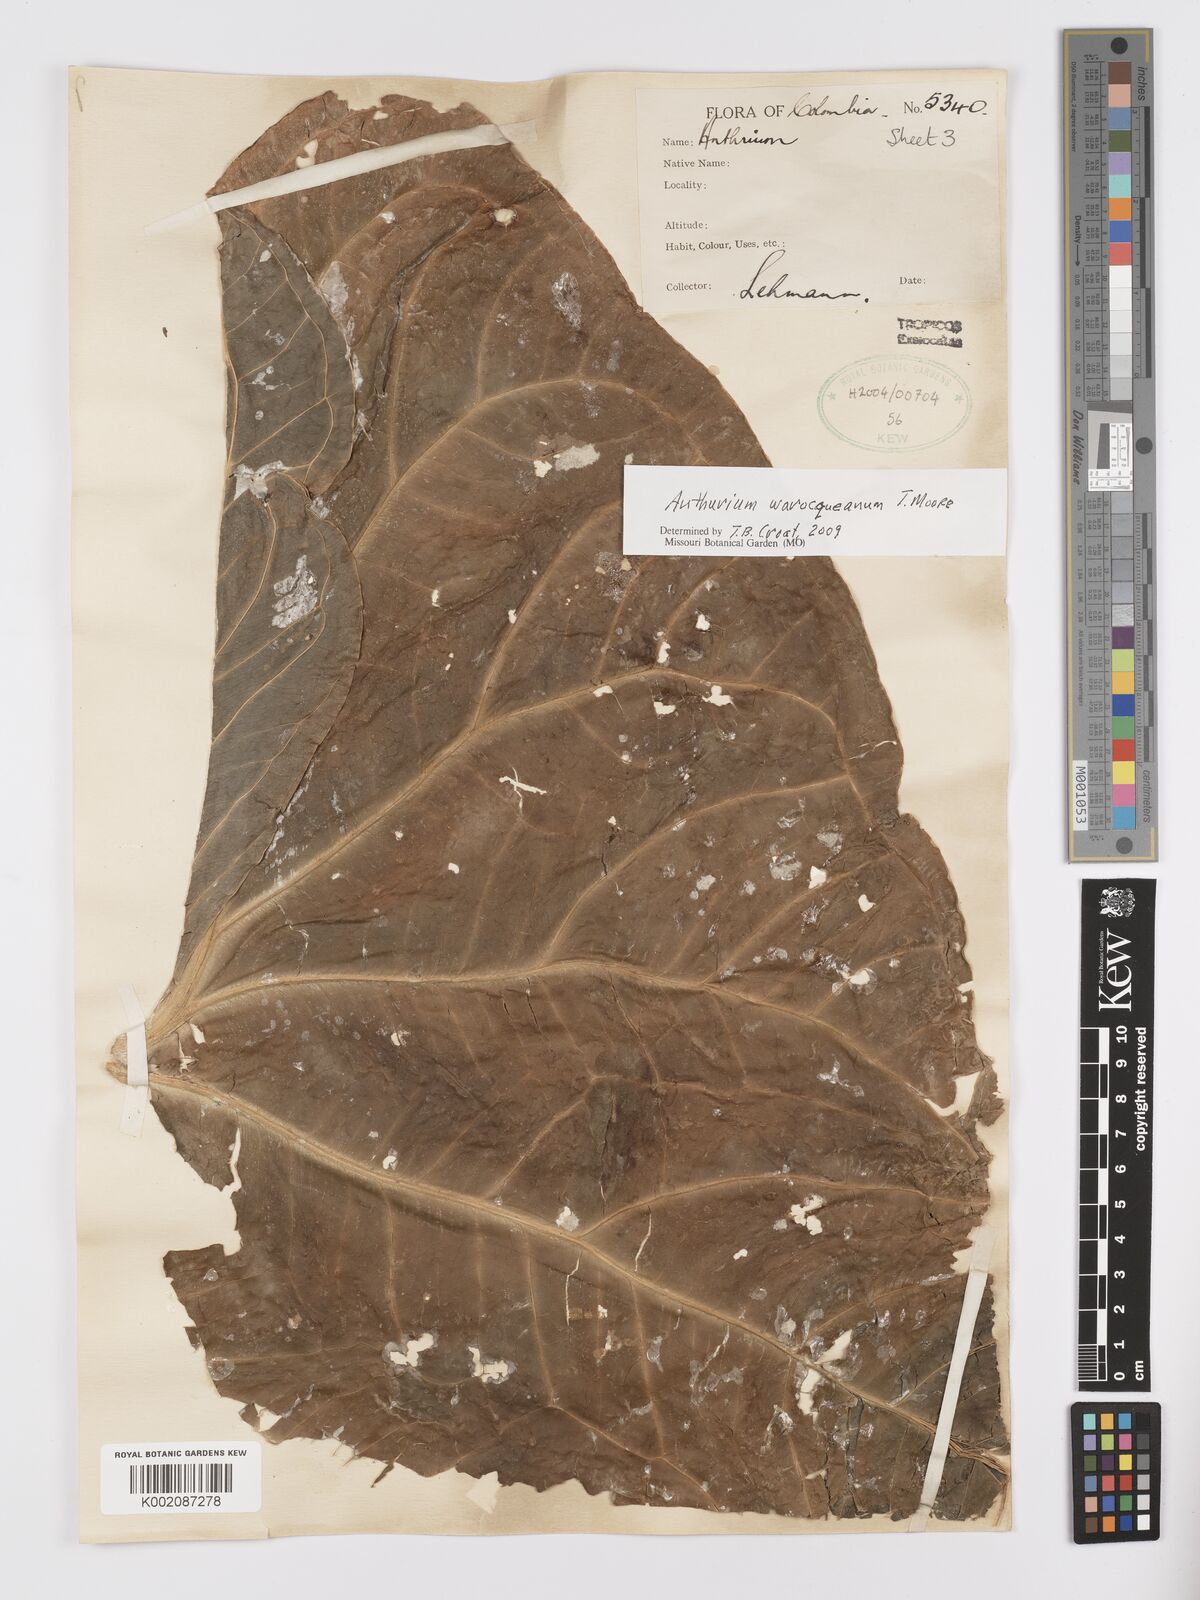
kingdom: Plantae
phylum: Tracheophyta
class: Liliopsida
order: Alismatales
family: Araceae
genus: Anthurium
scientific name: Anthurium warocqueanum
